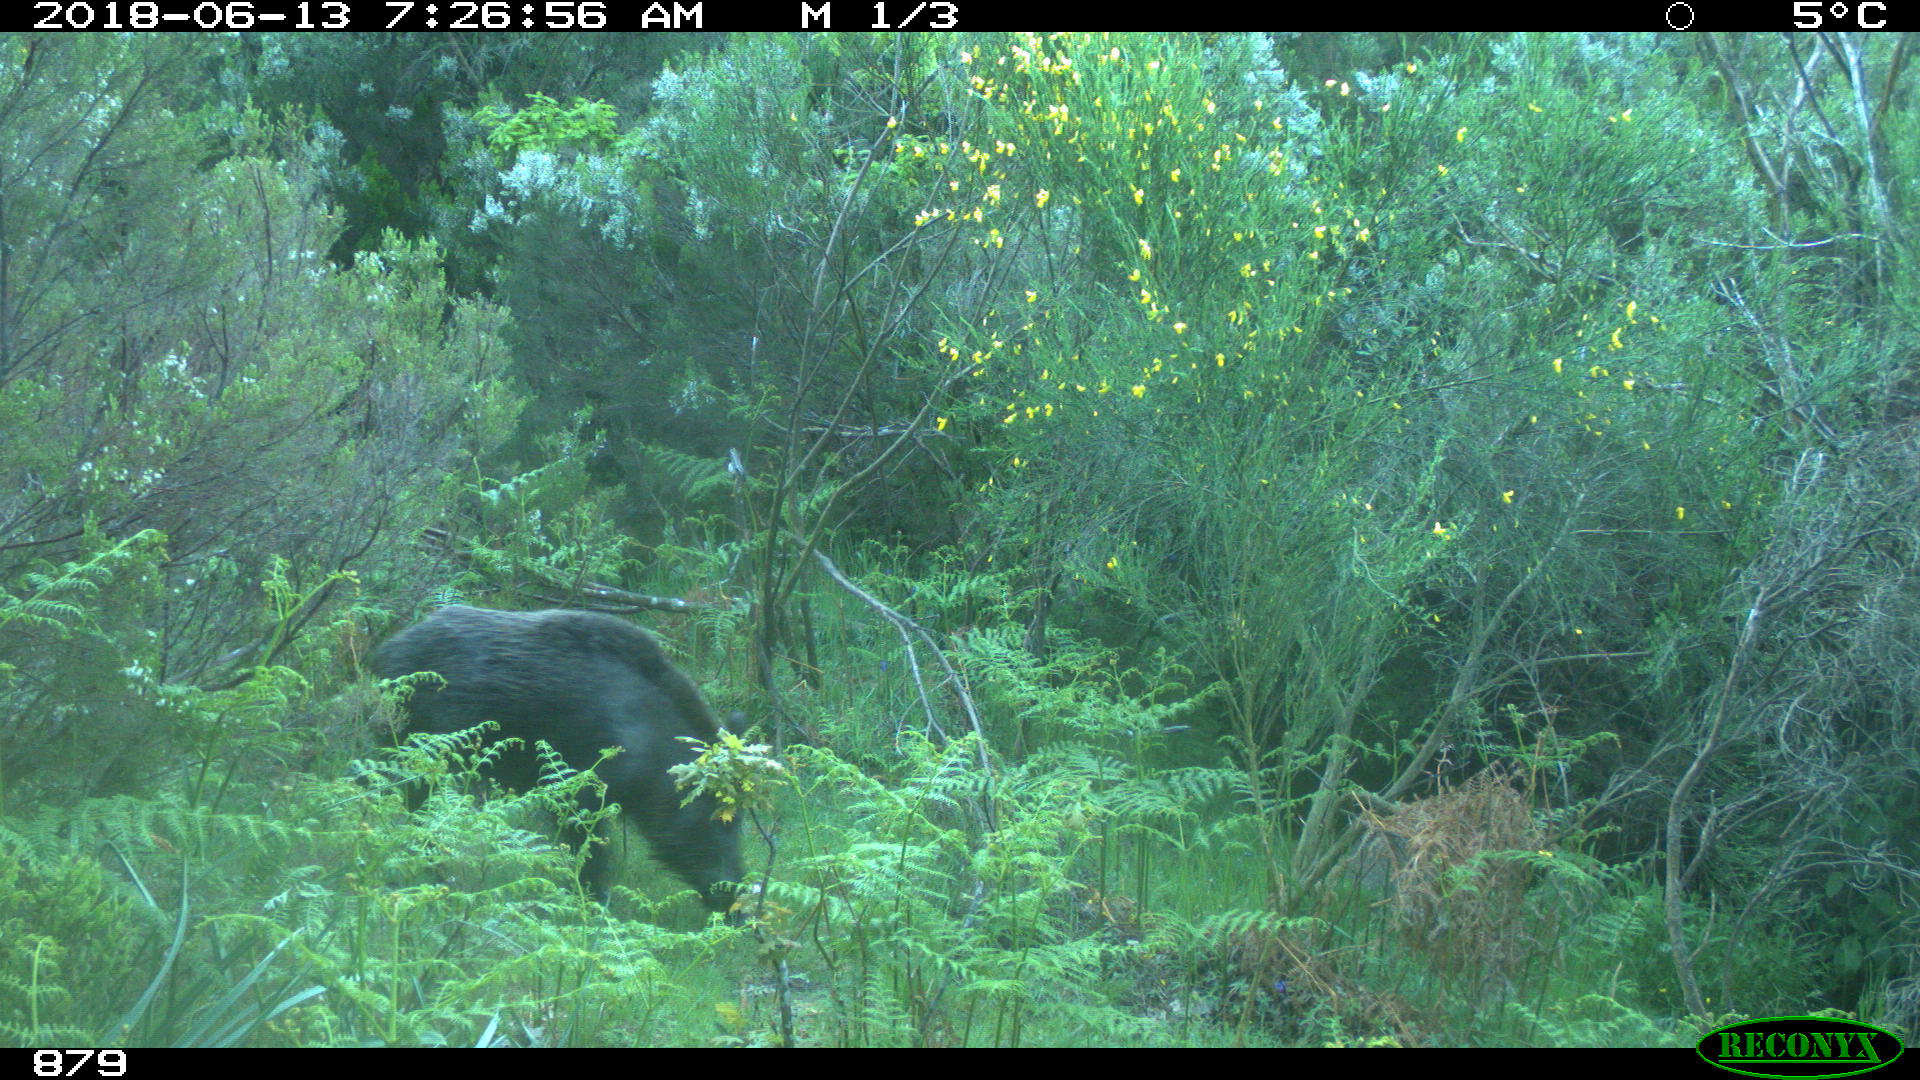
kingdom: Animalia
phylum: Chordata
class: Mammalia
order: Artiodactyla
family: Suidae
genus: Sus
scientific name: Sus scrofa
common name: Wild boar
